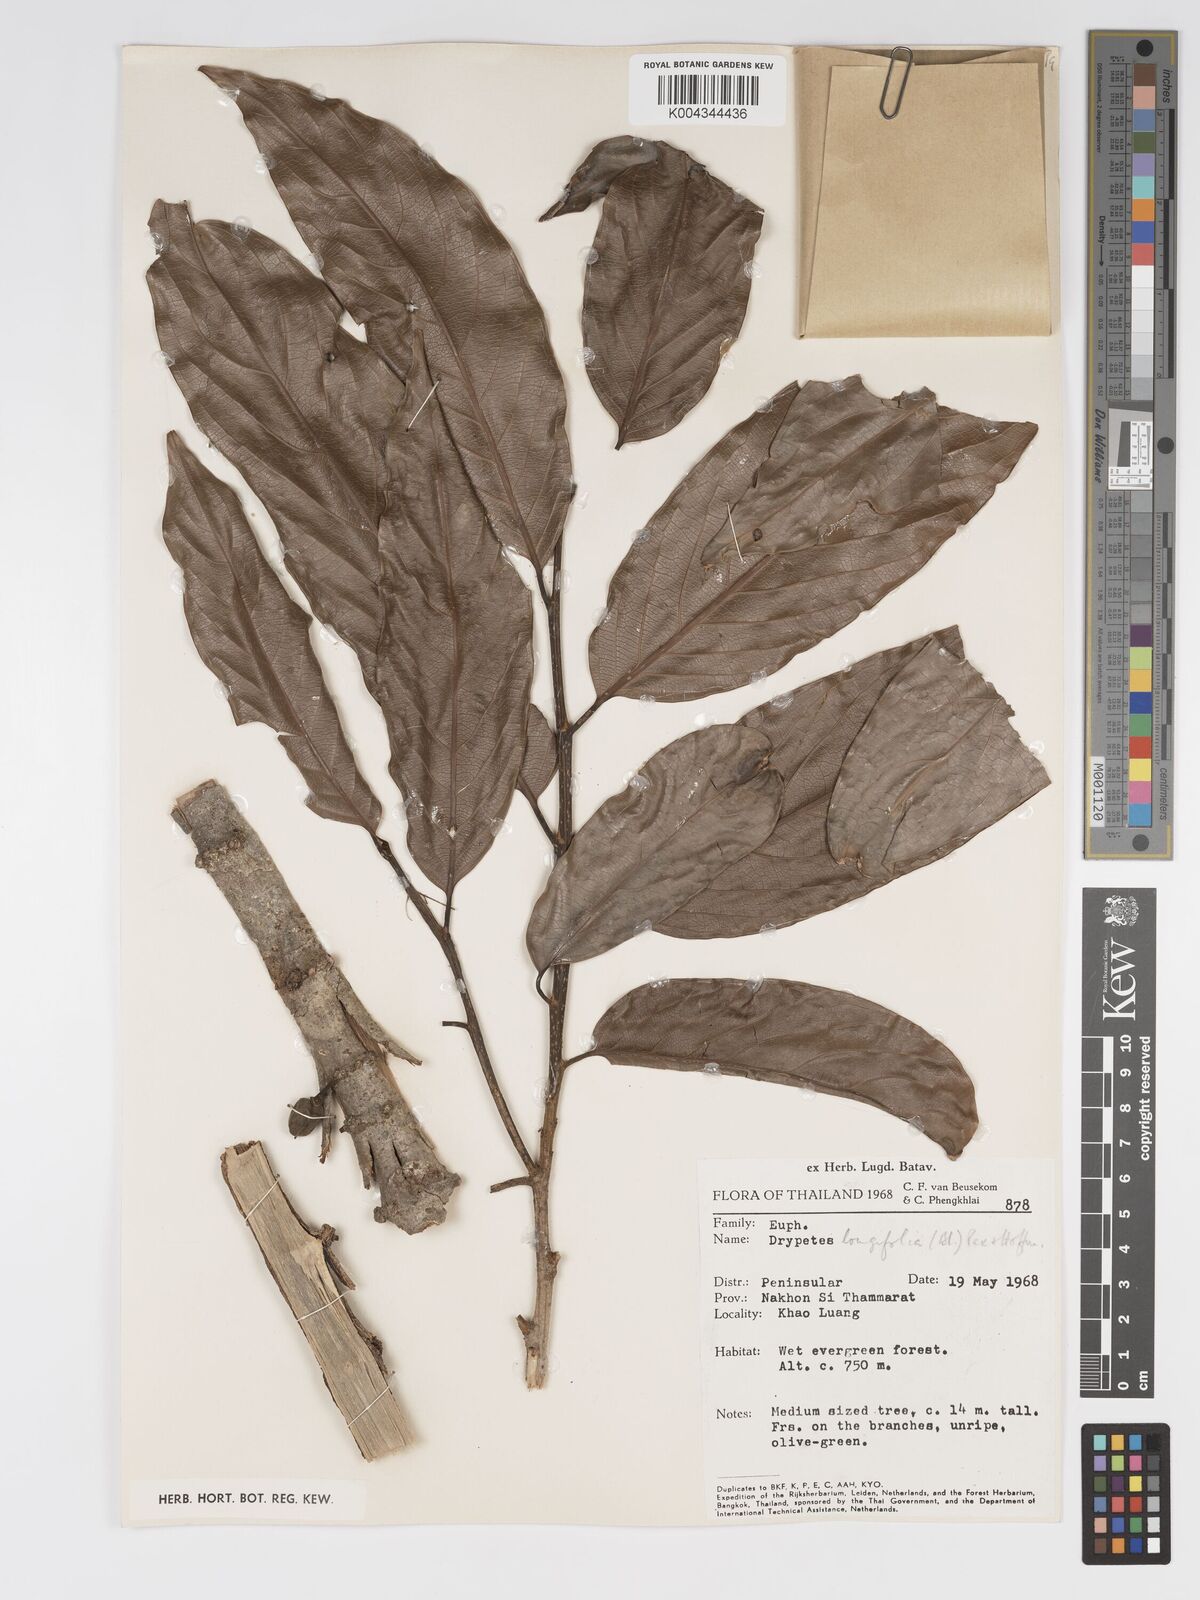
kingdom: Plantae
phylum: Tracheophyta
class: Magnoliopsida
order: Malpighiales
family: Putranjivaceae
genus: Drypetes
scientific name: Drypetes longifolia
